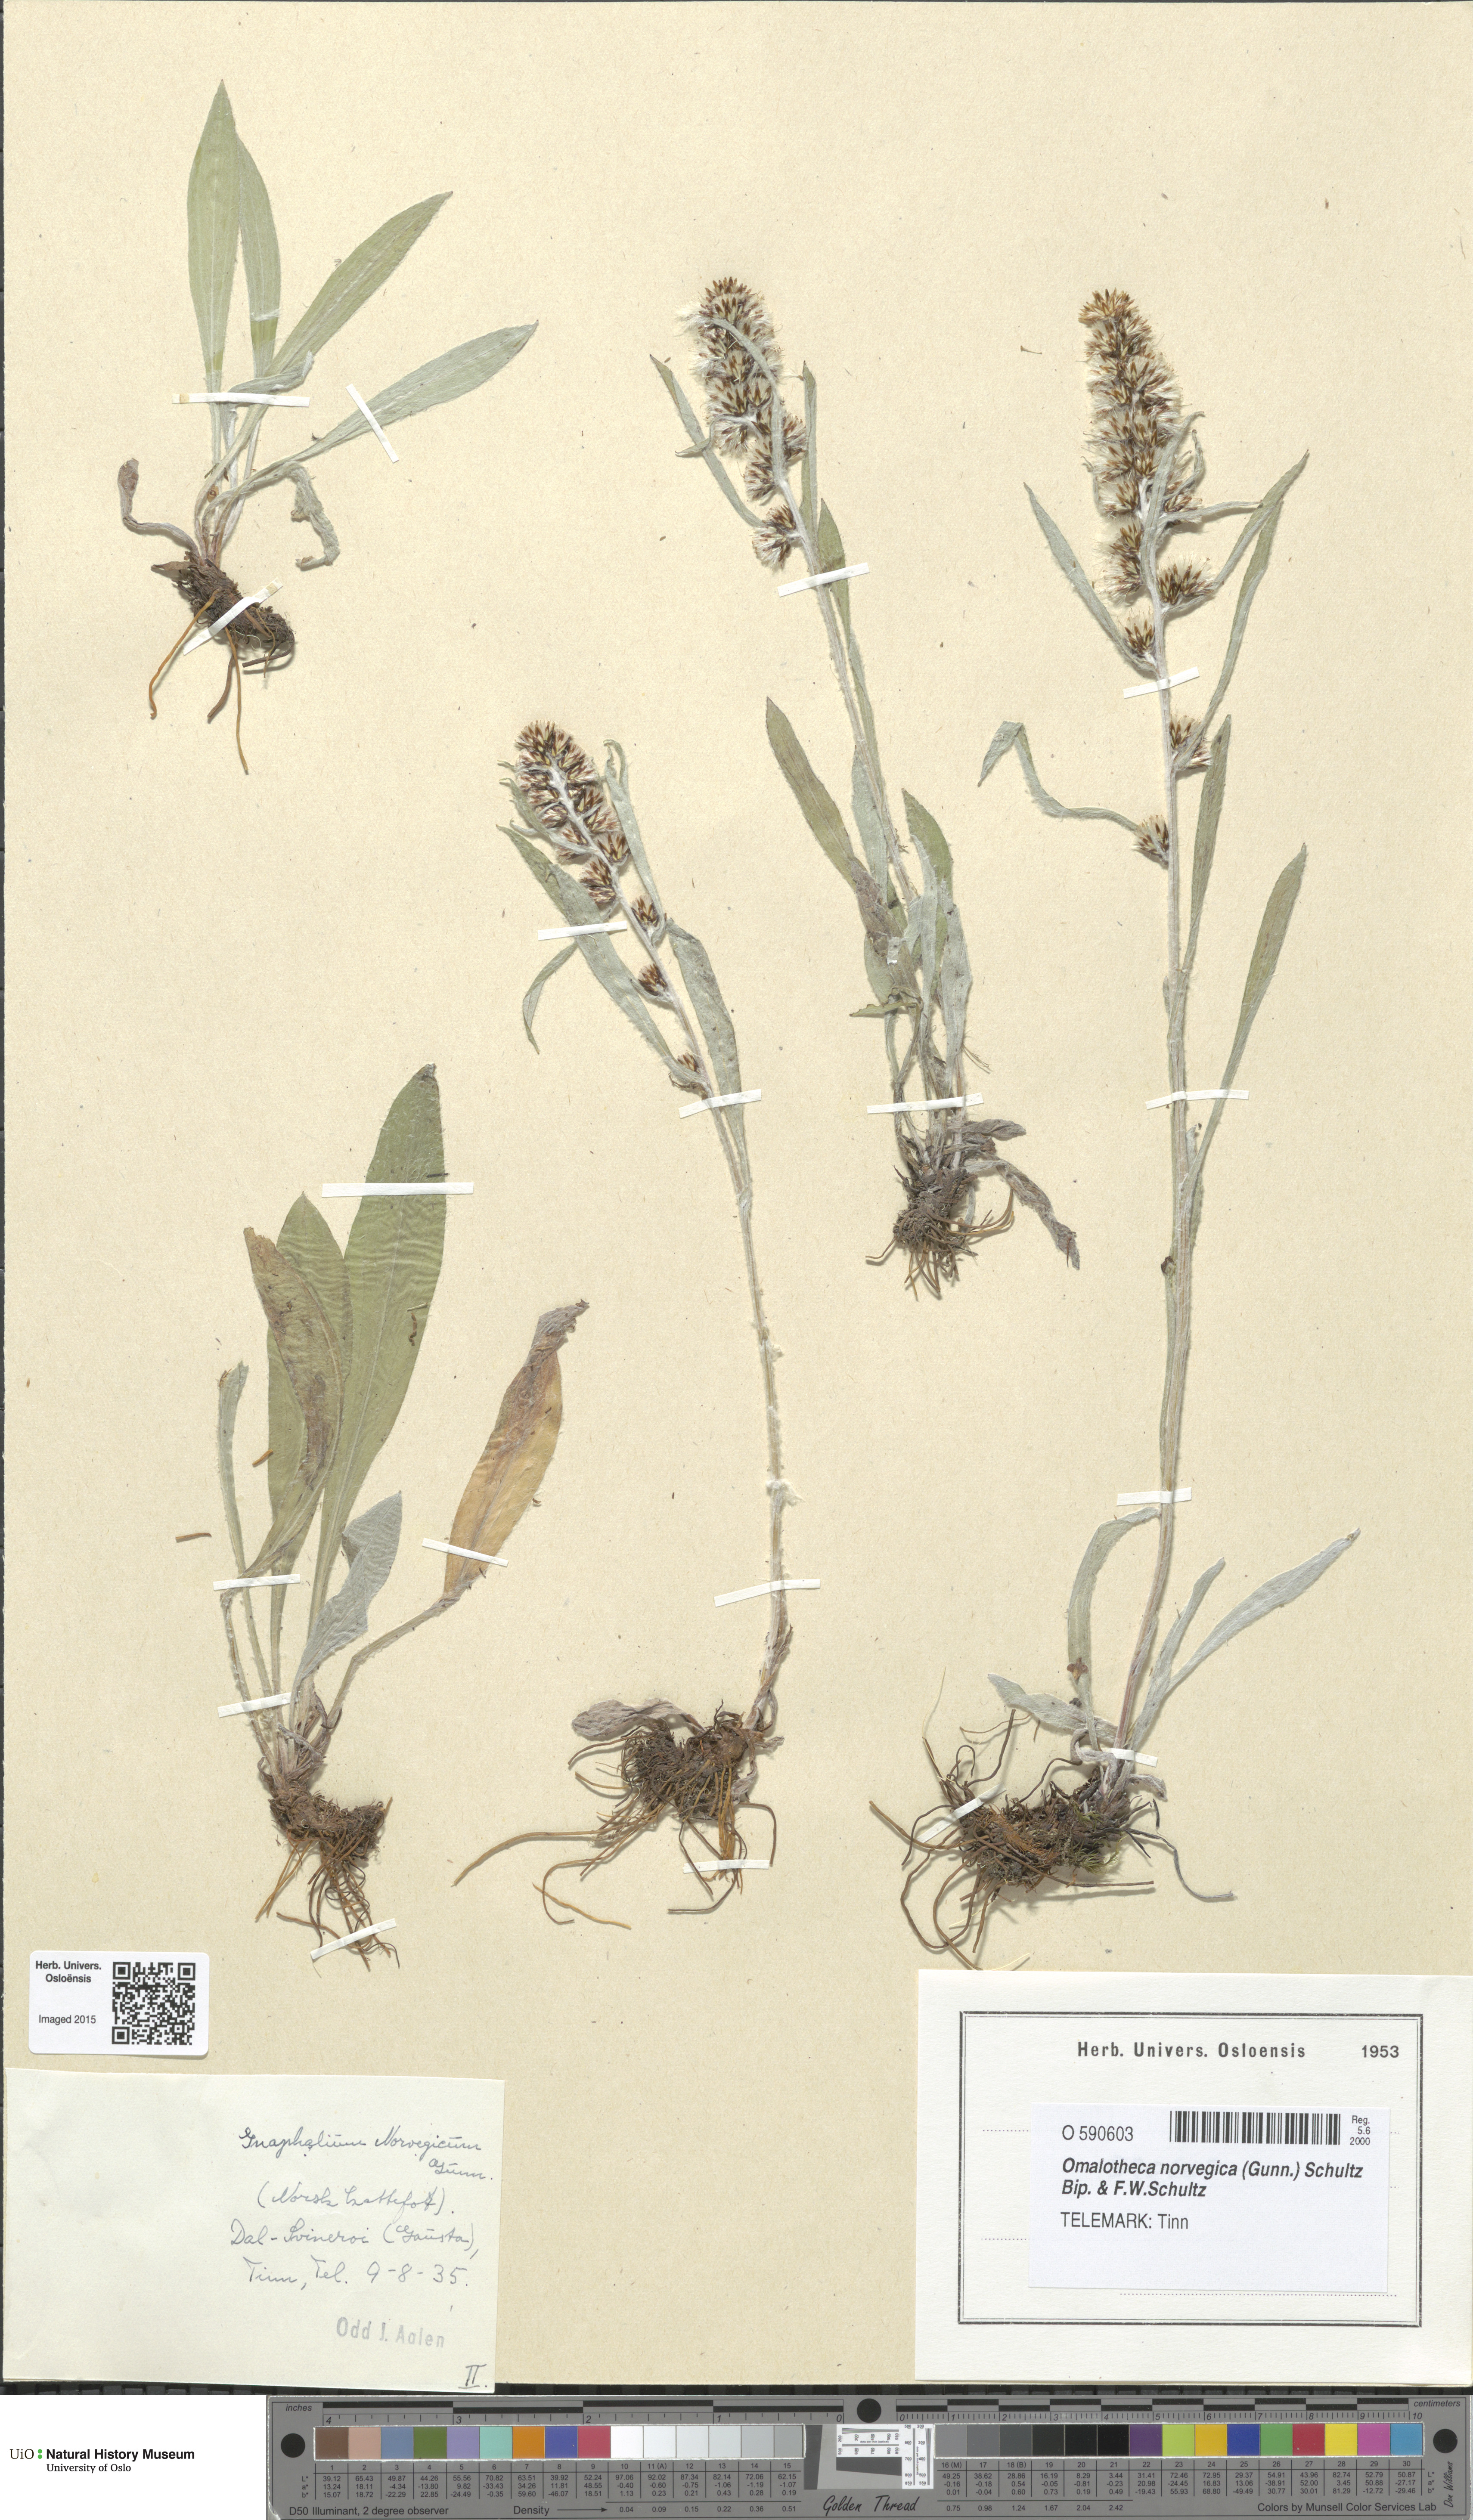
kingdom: Plantae
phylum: Tracheophyta
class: Magnoliopsida
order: Asterales
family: Asteraceae
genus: Omalotheca
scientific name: Omalotheca norvegica
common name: Norwegian arctic-cudweed
